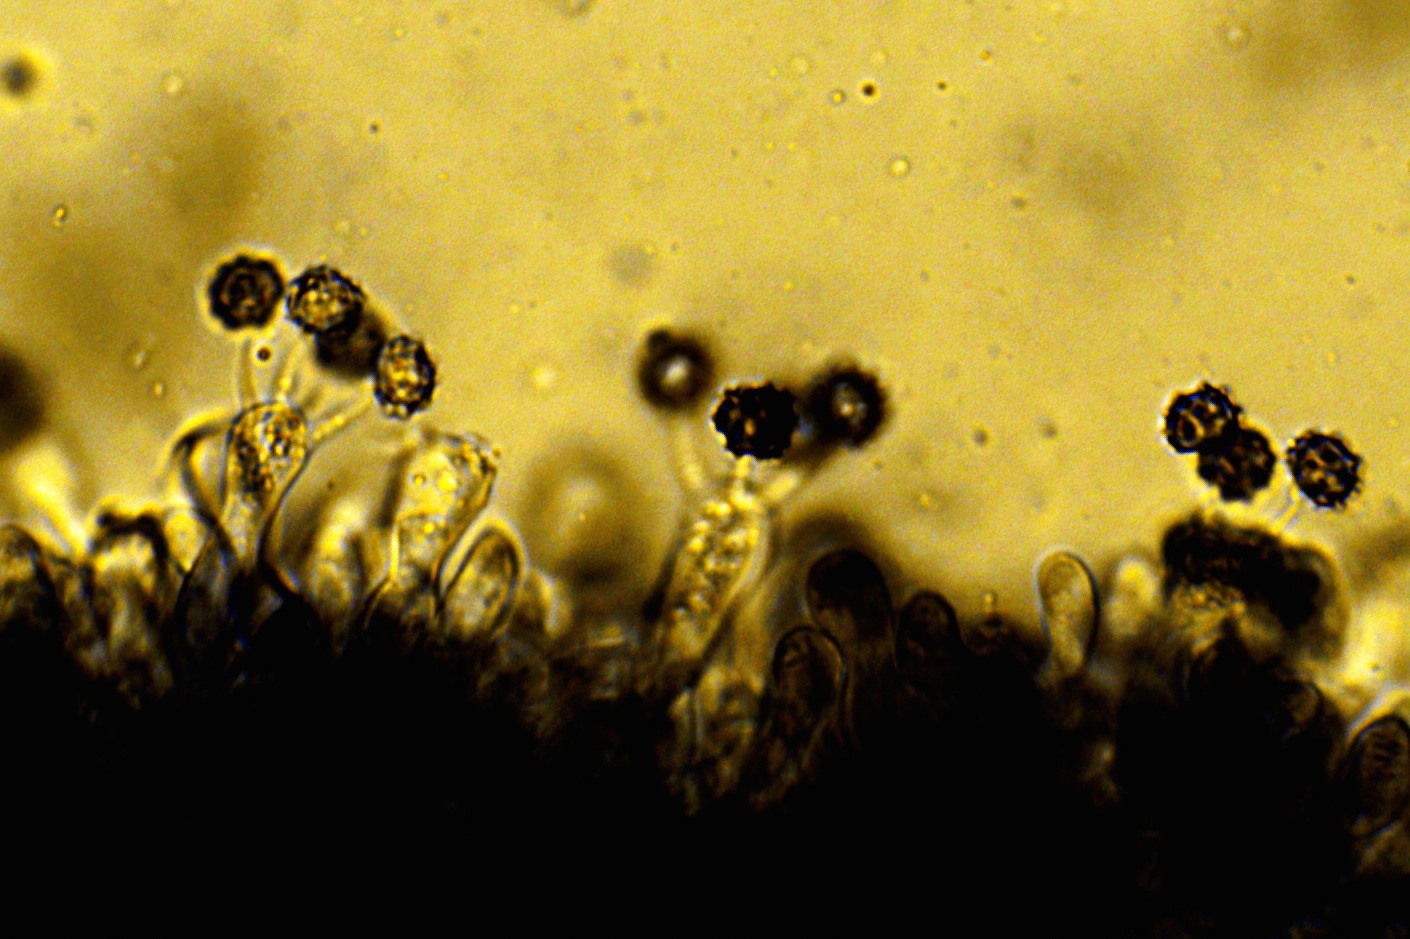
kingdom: Fungi
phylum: Basidiomycota
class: Agaricomycetes
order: Thelephorales
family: Thelephoraceae
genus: Tomentella
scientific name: Tomentella
